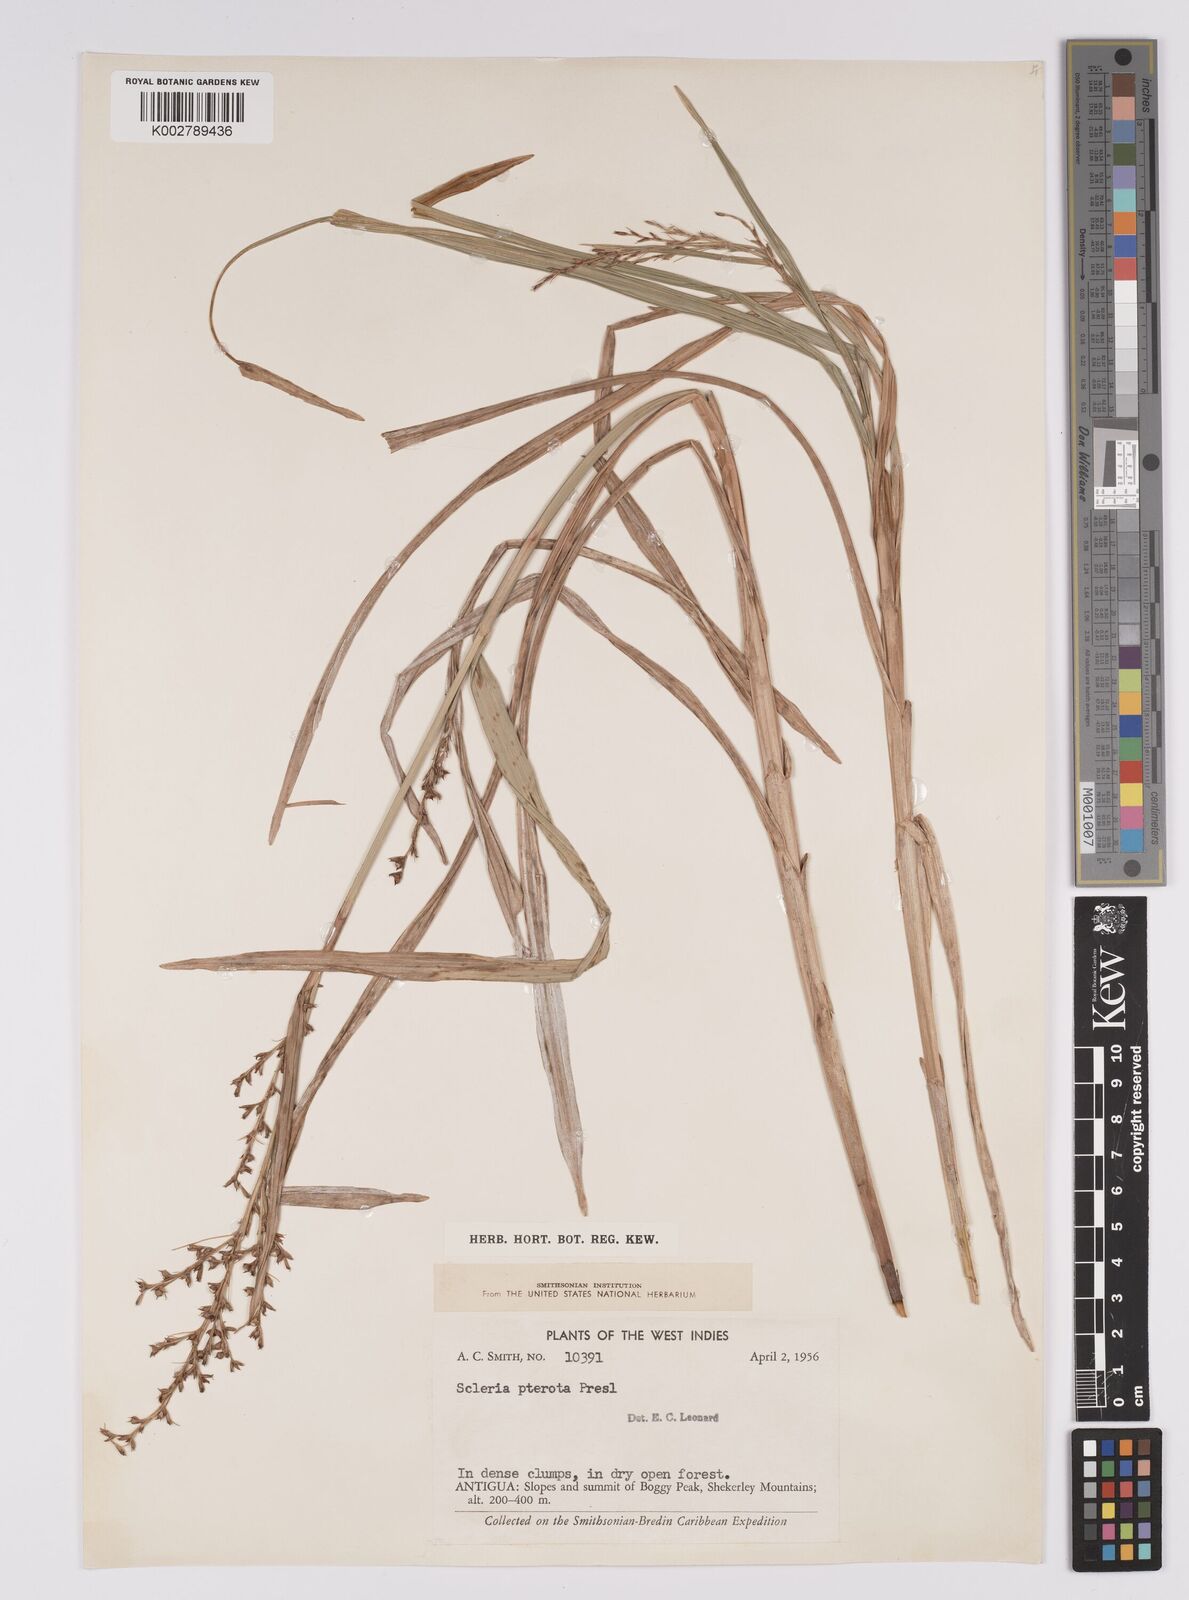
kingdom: Plantae
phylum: Tracheophyta
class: Liliopsida
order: Poales
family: Cyperaceae
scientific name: Cyperaceae
